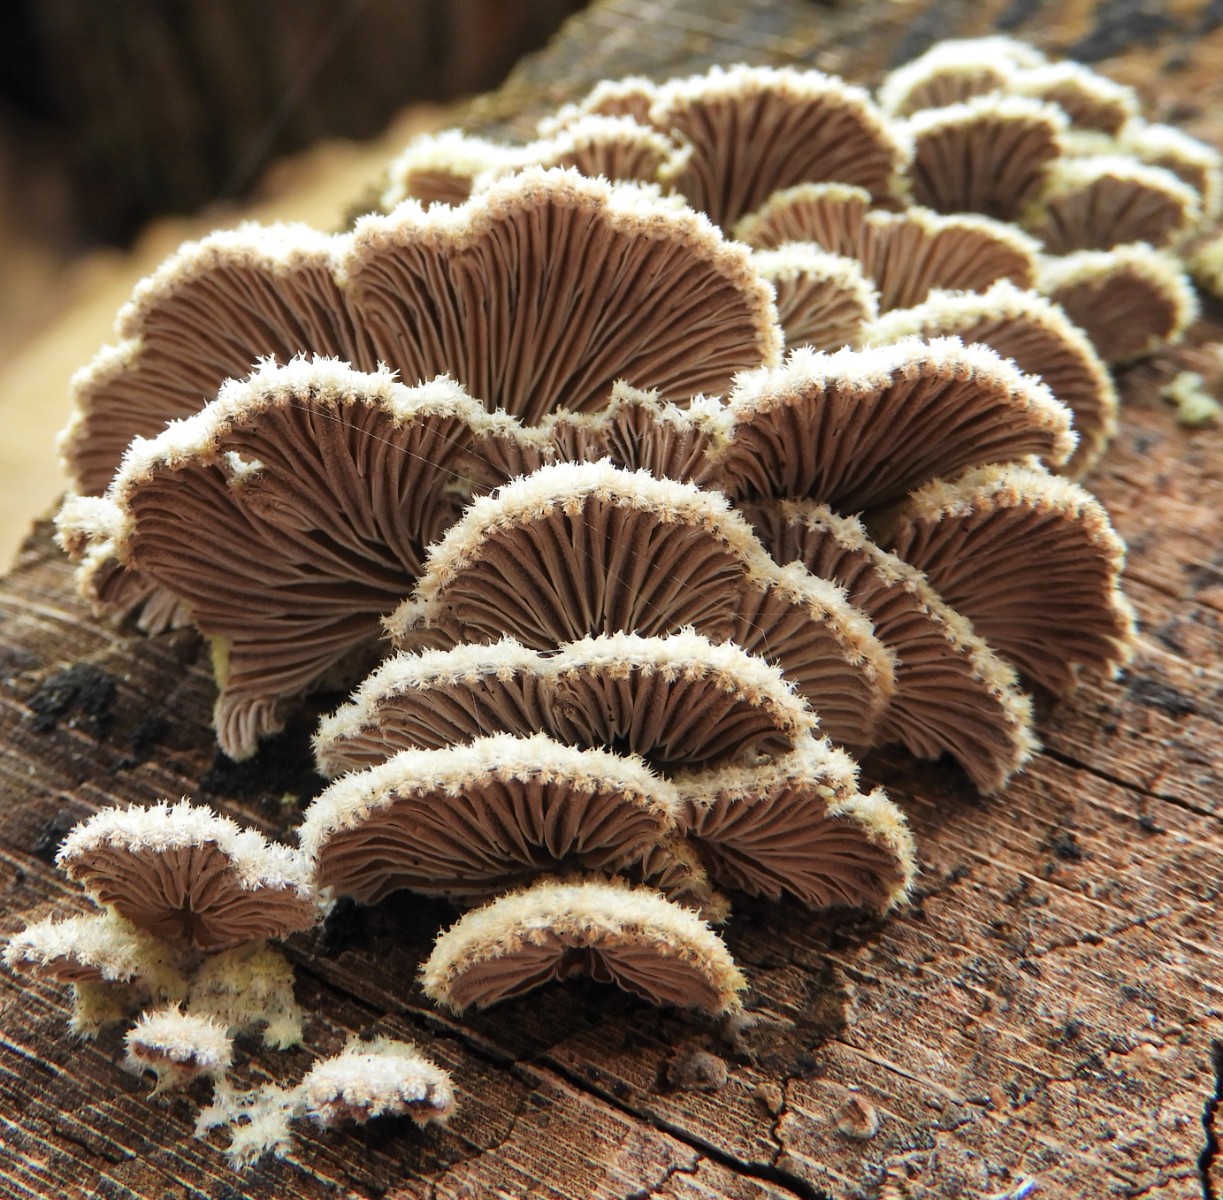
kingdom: Fungi
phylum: Basidiomycota
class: Agaricomycetes
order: Agaricales
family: Schizophyllaceae
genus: Schizophyllum
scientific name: Schizophyllum commune
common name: kløvblad
